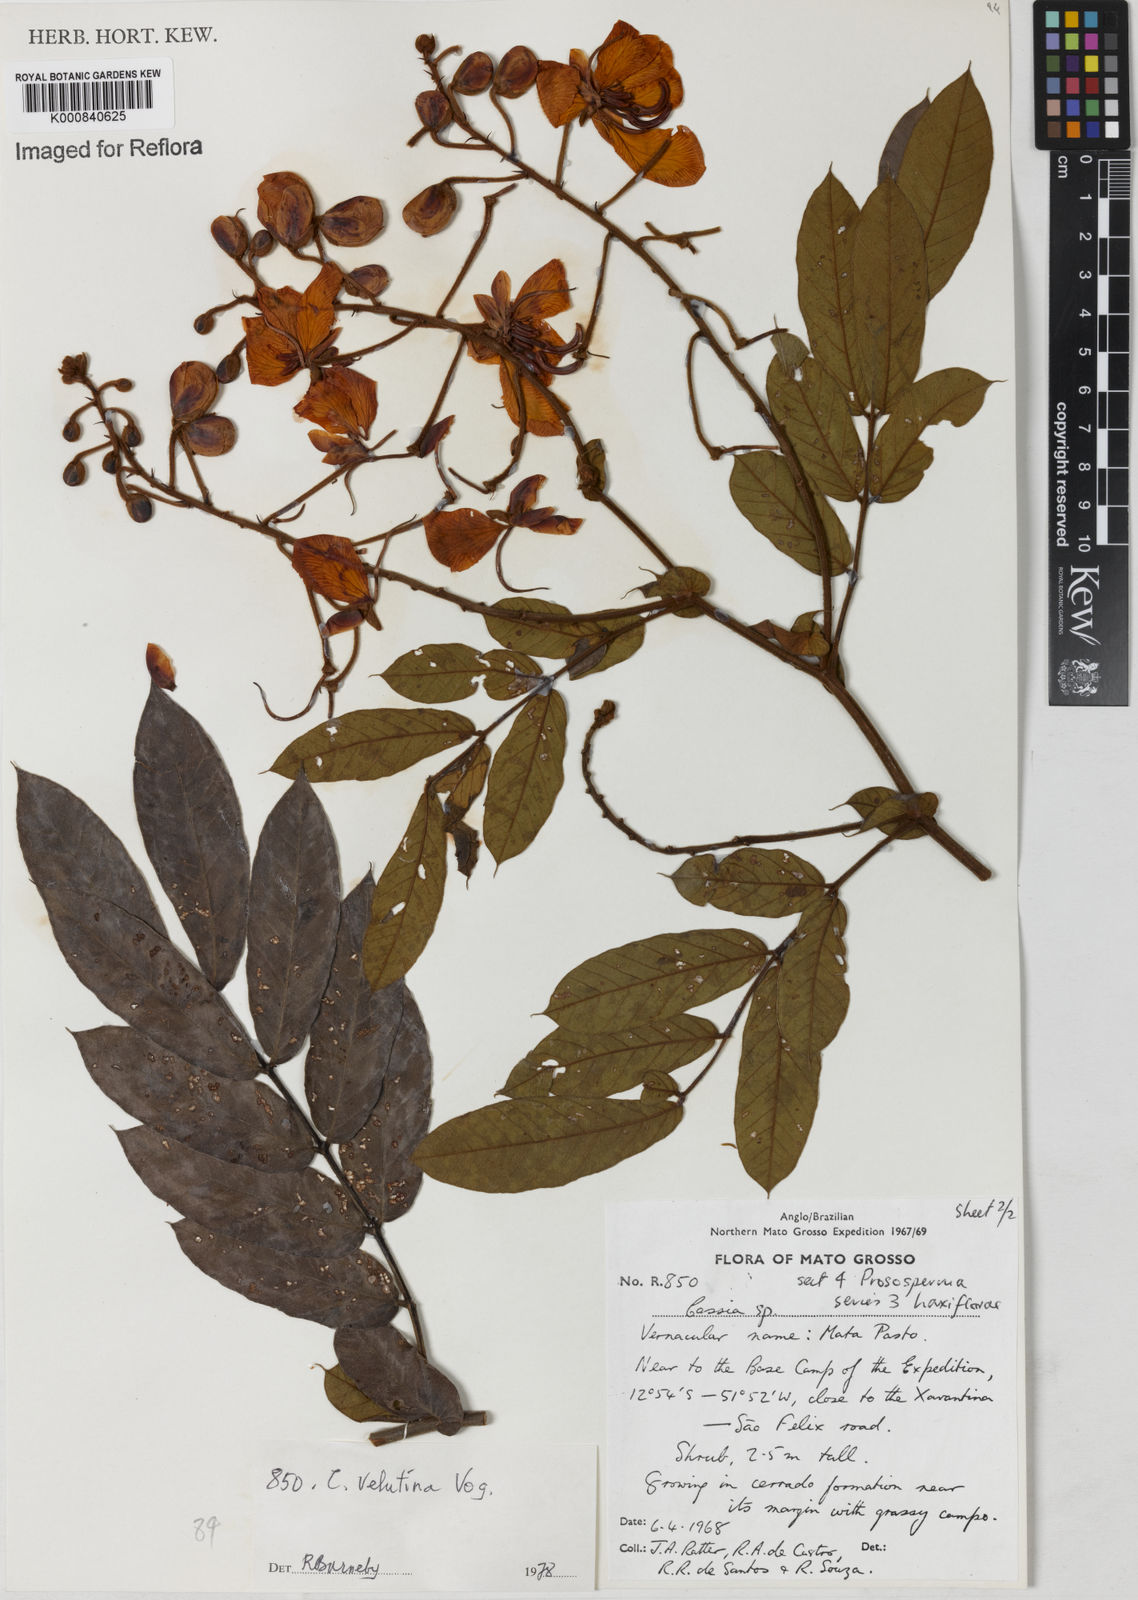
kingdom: Plantae
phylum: Tracheophyta
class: Magnoliopsida
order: Fabales
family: Fabaceae
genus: Senna
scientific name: Senna velutina
